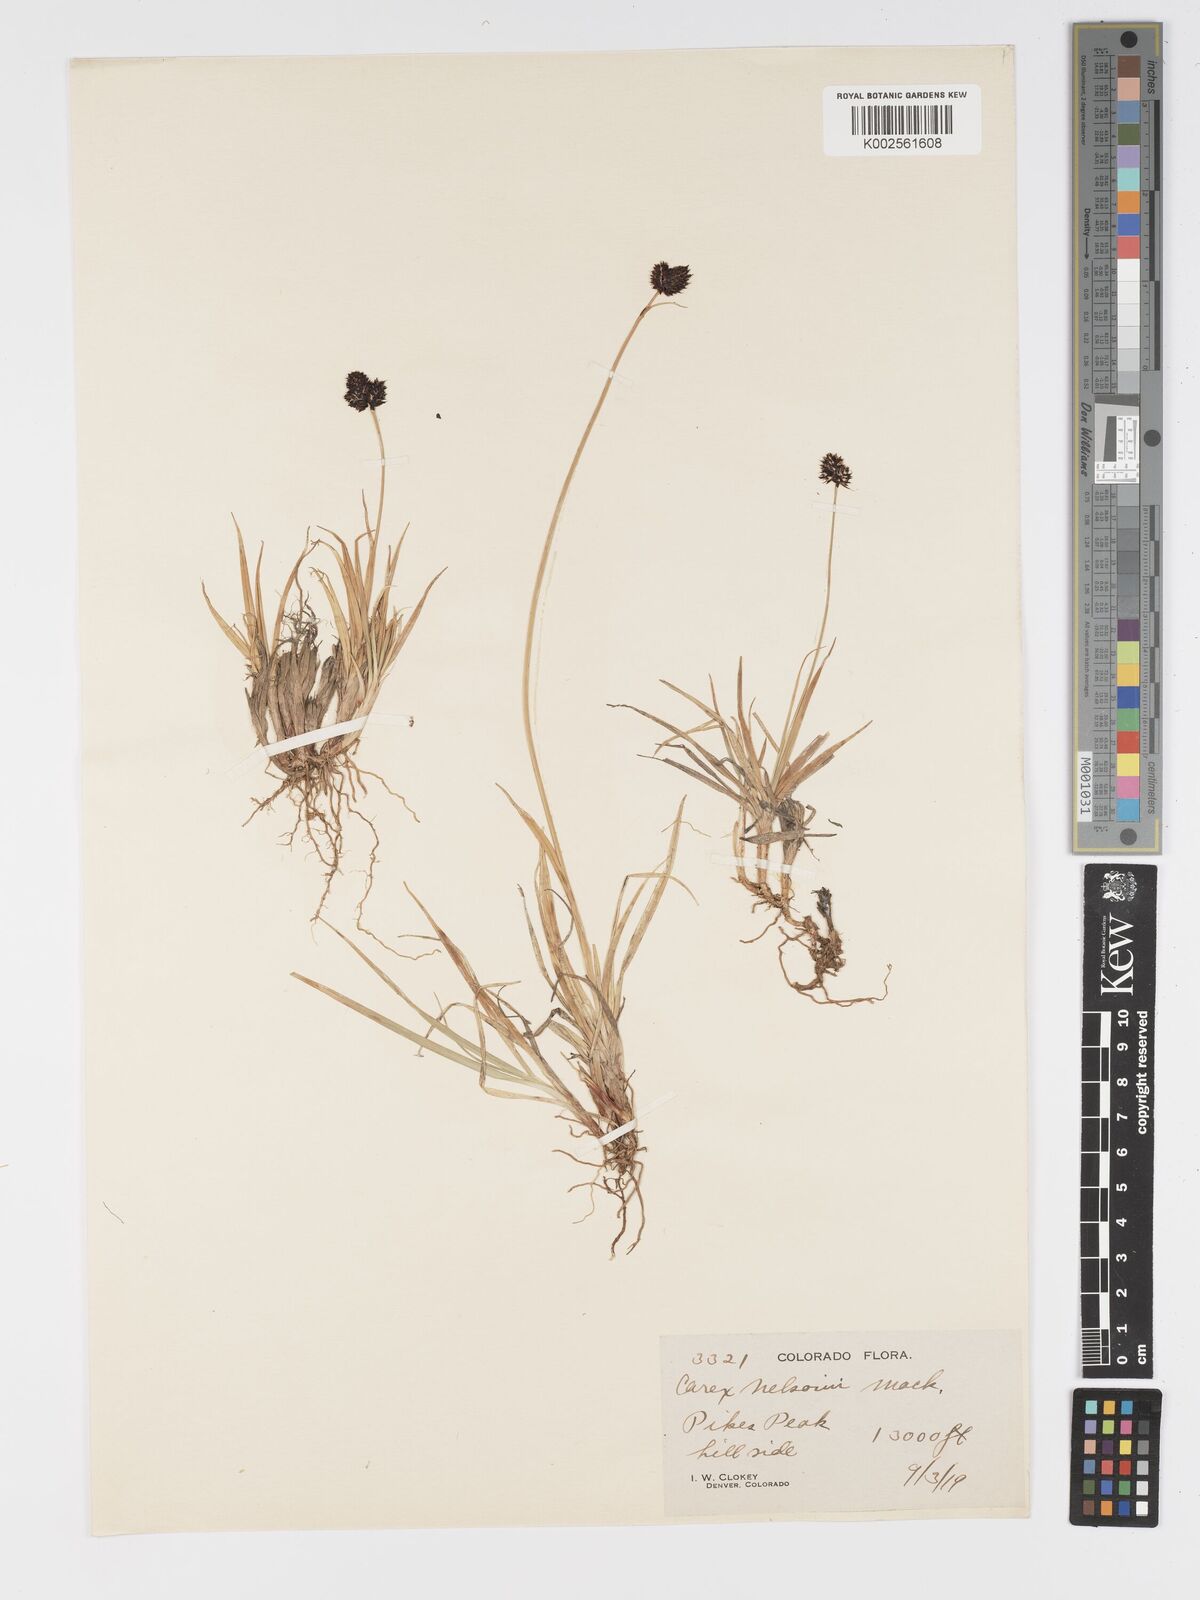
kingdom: Plantae
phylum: Tracheophyta
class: Liliopsida
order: Poales
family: Cyperaceae
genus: Carex
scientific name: Carex nelsonii
